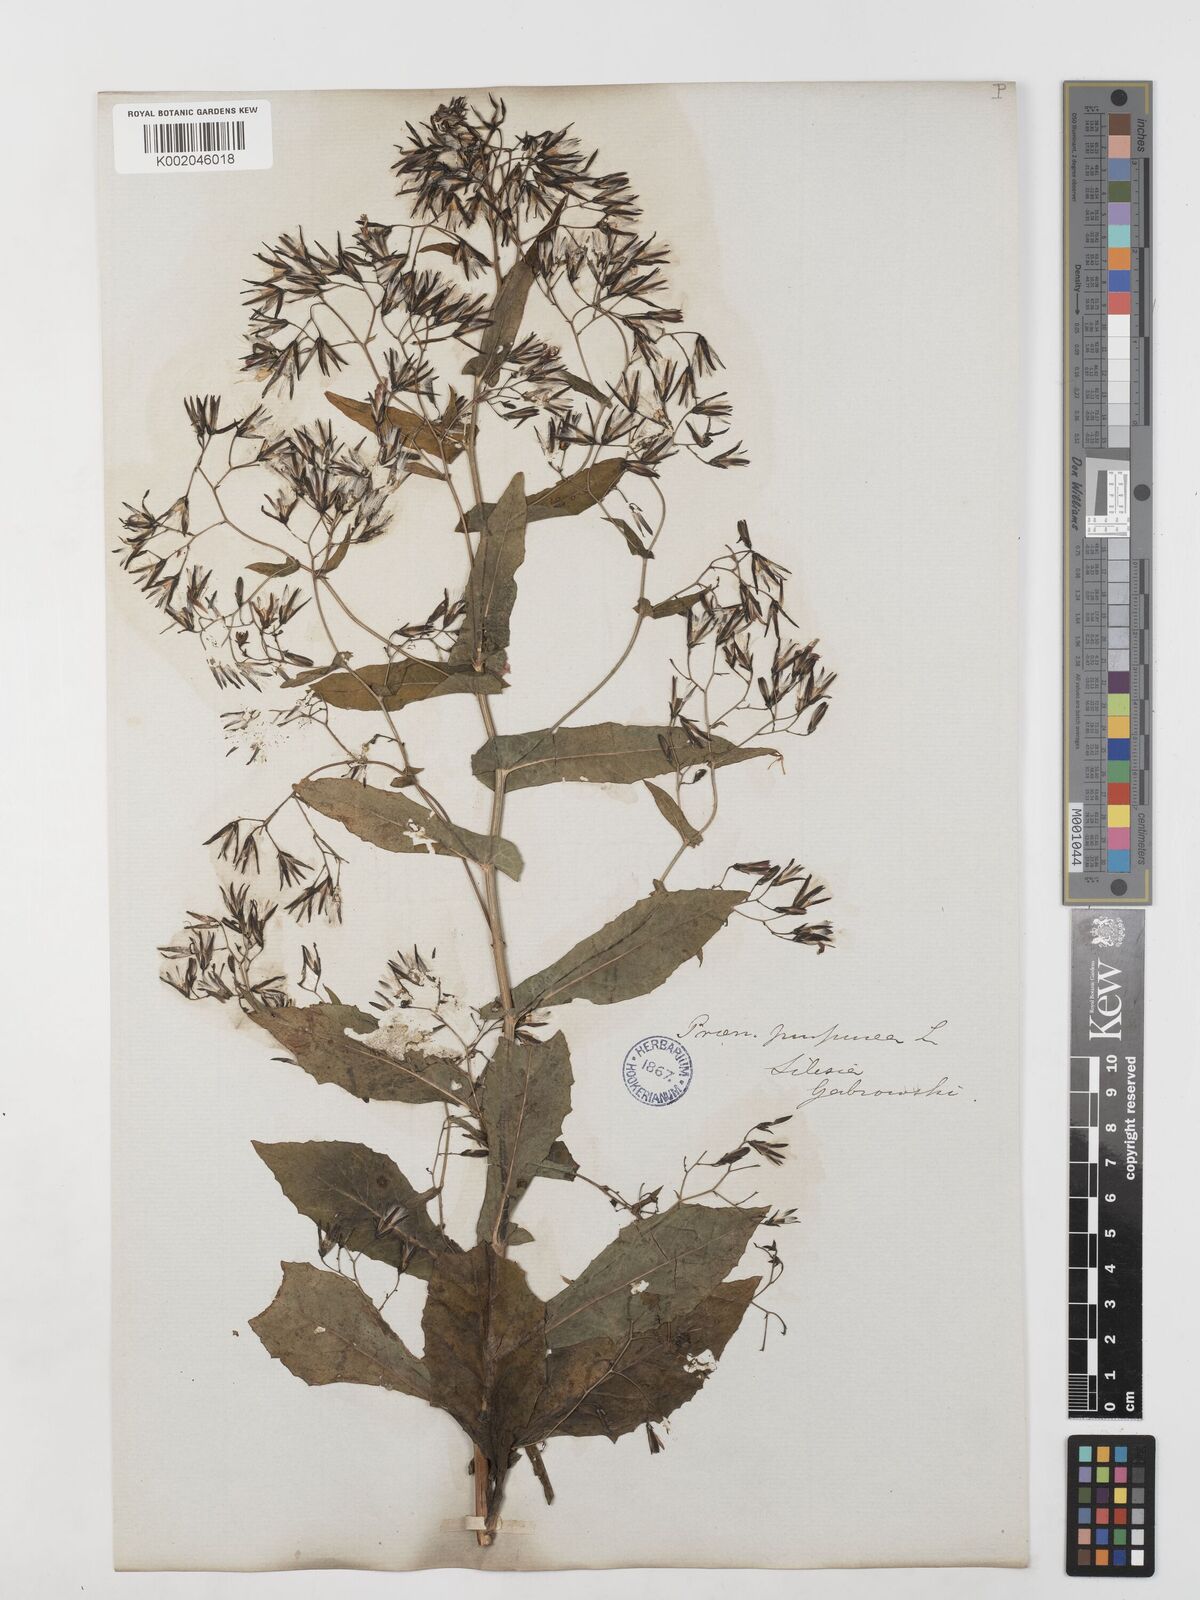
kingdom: Plantae
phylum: Tracheophyta
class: Magnoliopsida
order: Asterales
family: Asteraceae
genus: Prenanthes
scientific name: Prenanthes purpurea
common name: Purple lettuce
